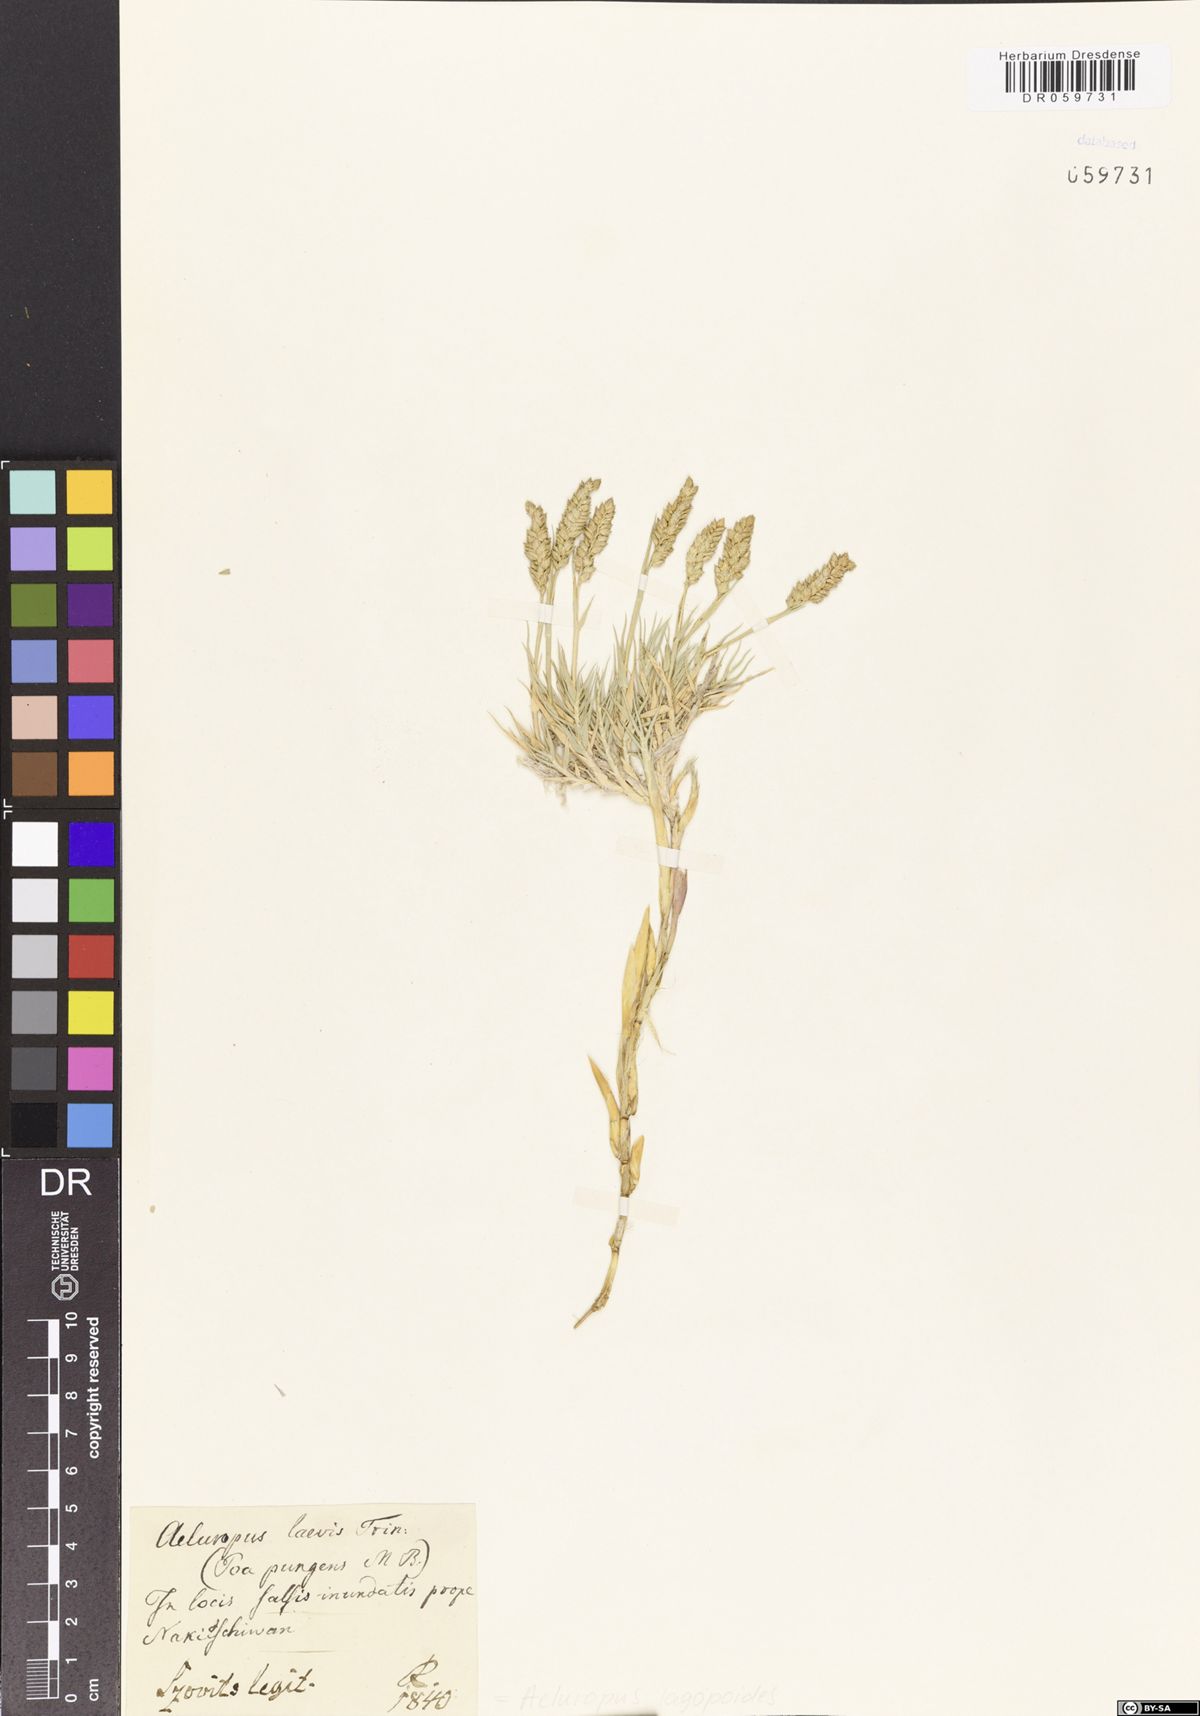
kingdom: Plantae
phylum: Tracheophyta
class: Liliopsida
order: Poales
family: Poaceae
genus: Aeluropus
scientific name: Aeluropus lagopoides
